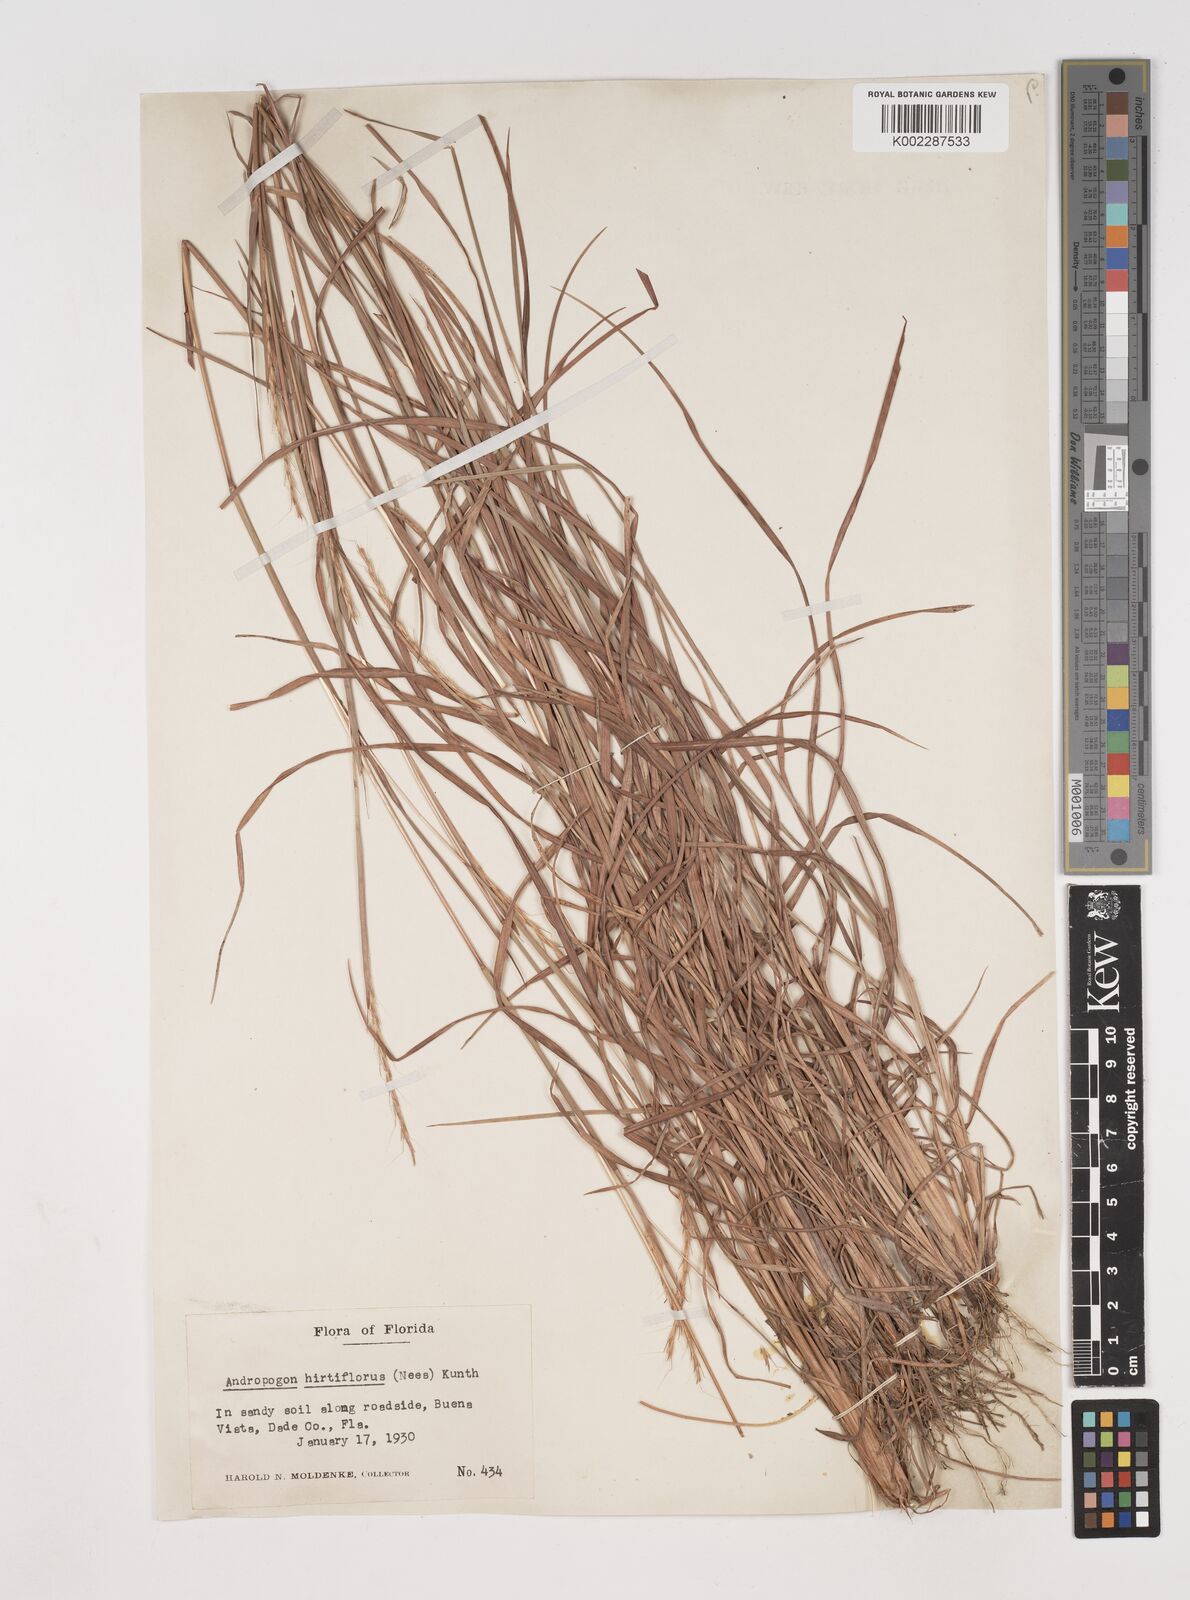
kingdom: Plantae
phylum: Tracheophyta
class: Liliopsida
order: Poales
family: Poaceae
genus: Schizachyrium
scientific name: Schizachyrium sanguineum
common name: Crimson bluestem
